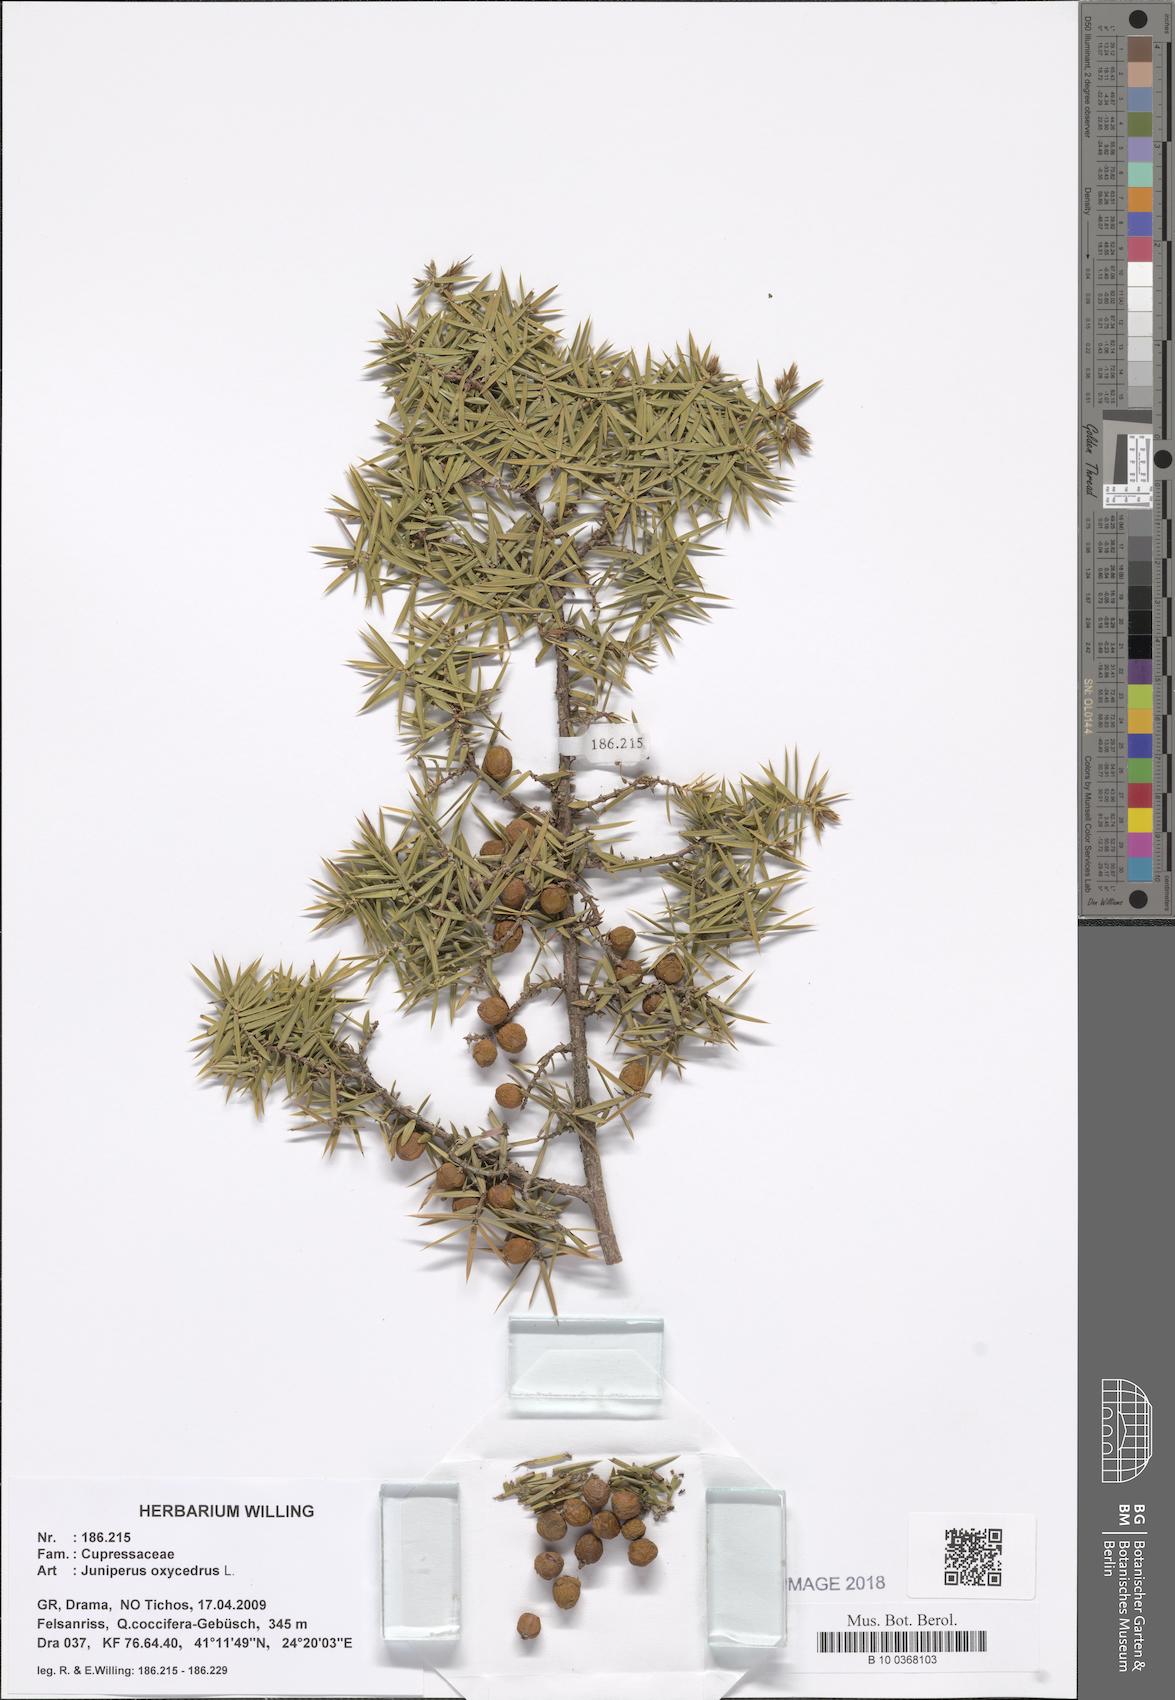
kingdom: Plantae
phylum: Tracheophyta
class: Pinopsida
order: Pinales
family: Cupressaceae
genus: Juniperus
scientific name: Juniperus
